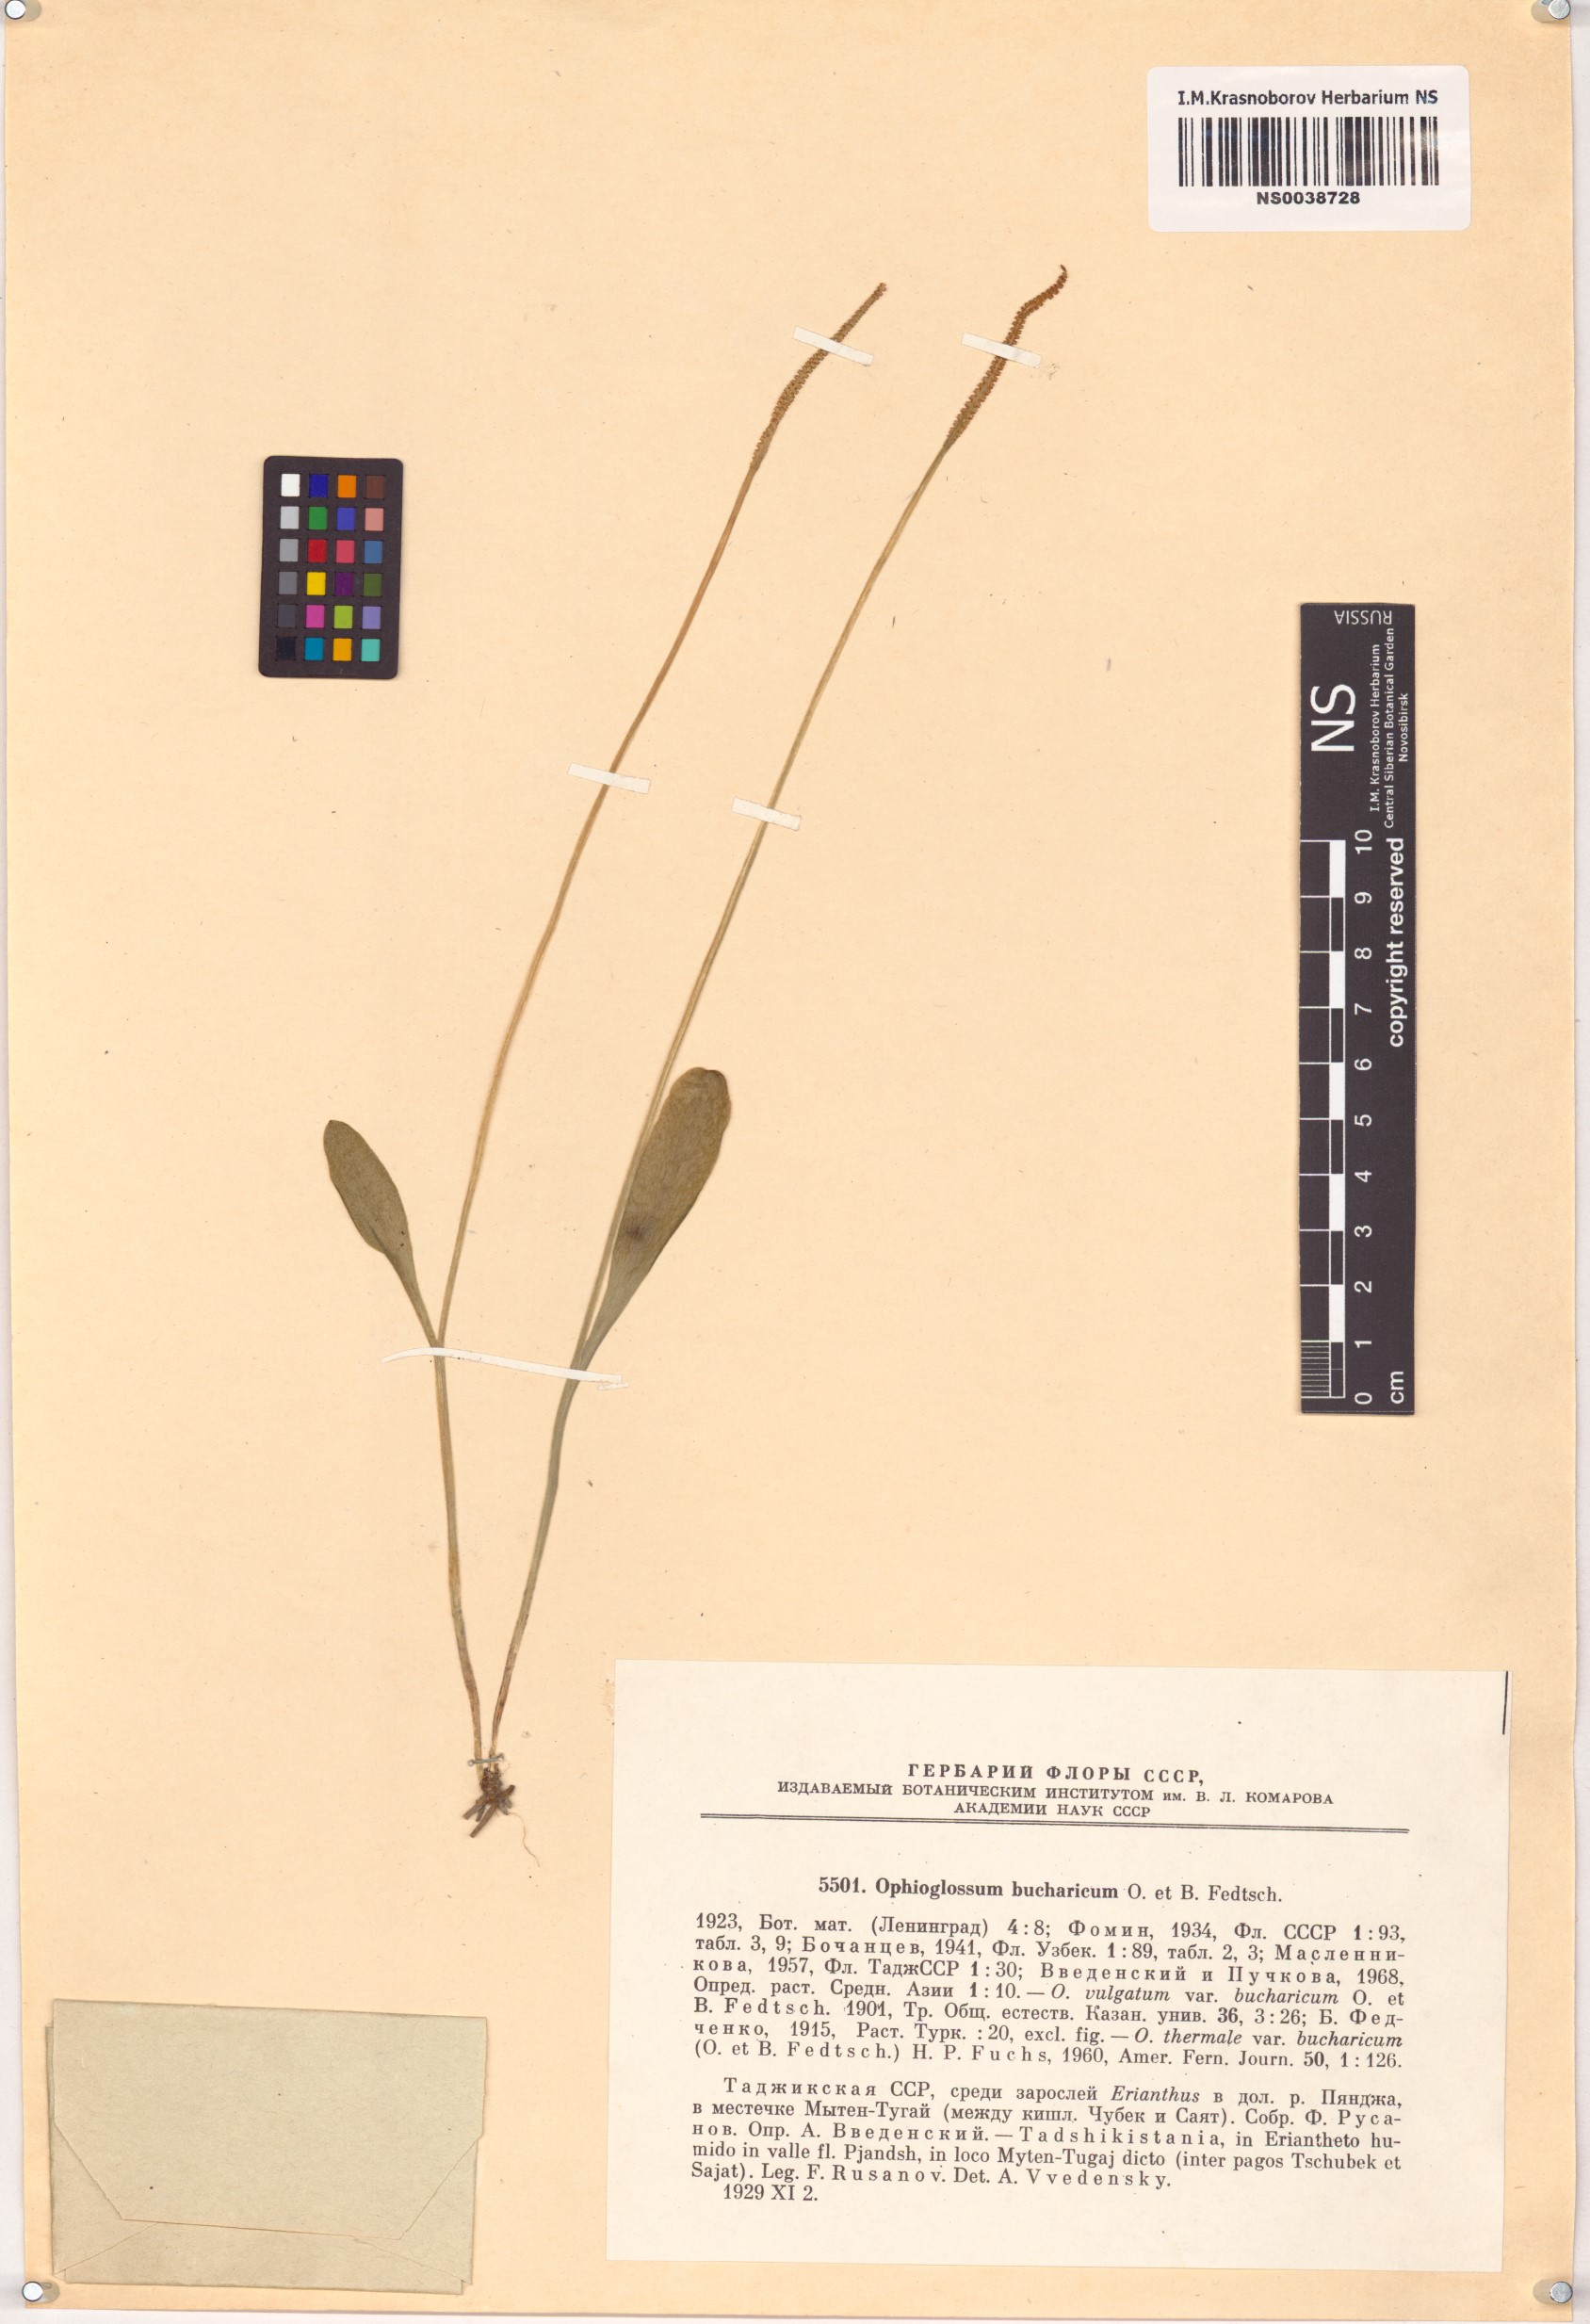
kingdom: Plantae
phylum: Tracheophyta
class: Polypodiopsida
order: Ophioglossales
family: Ophioglossaceae
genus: Ophioglossum
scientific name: Ophioglossum thermale
